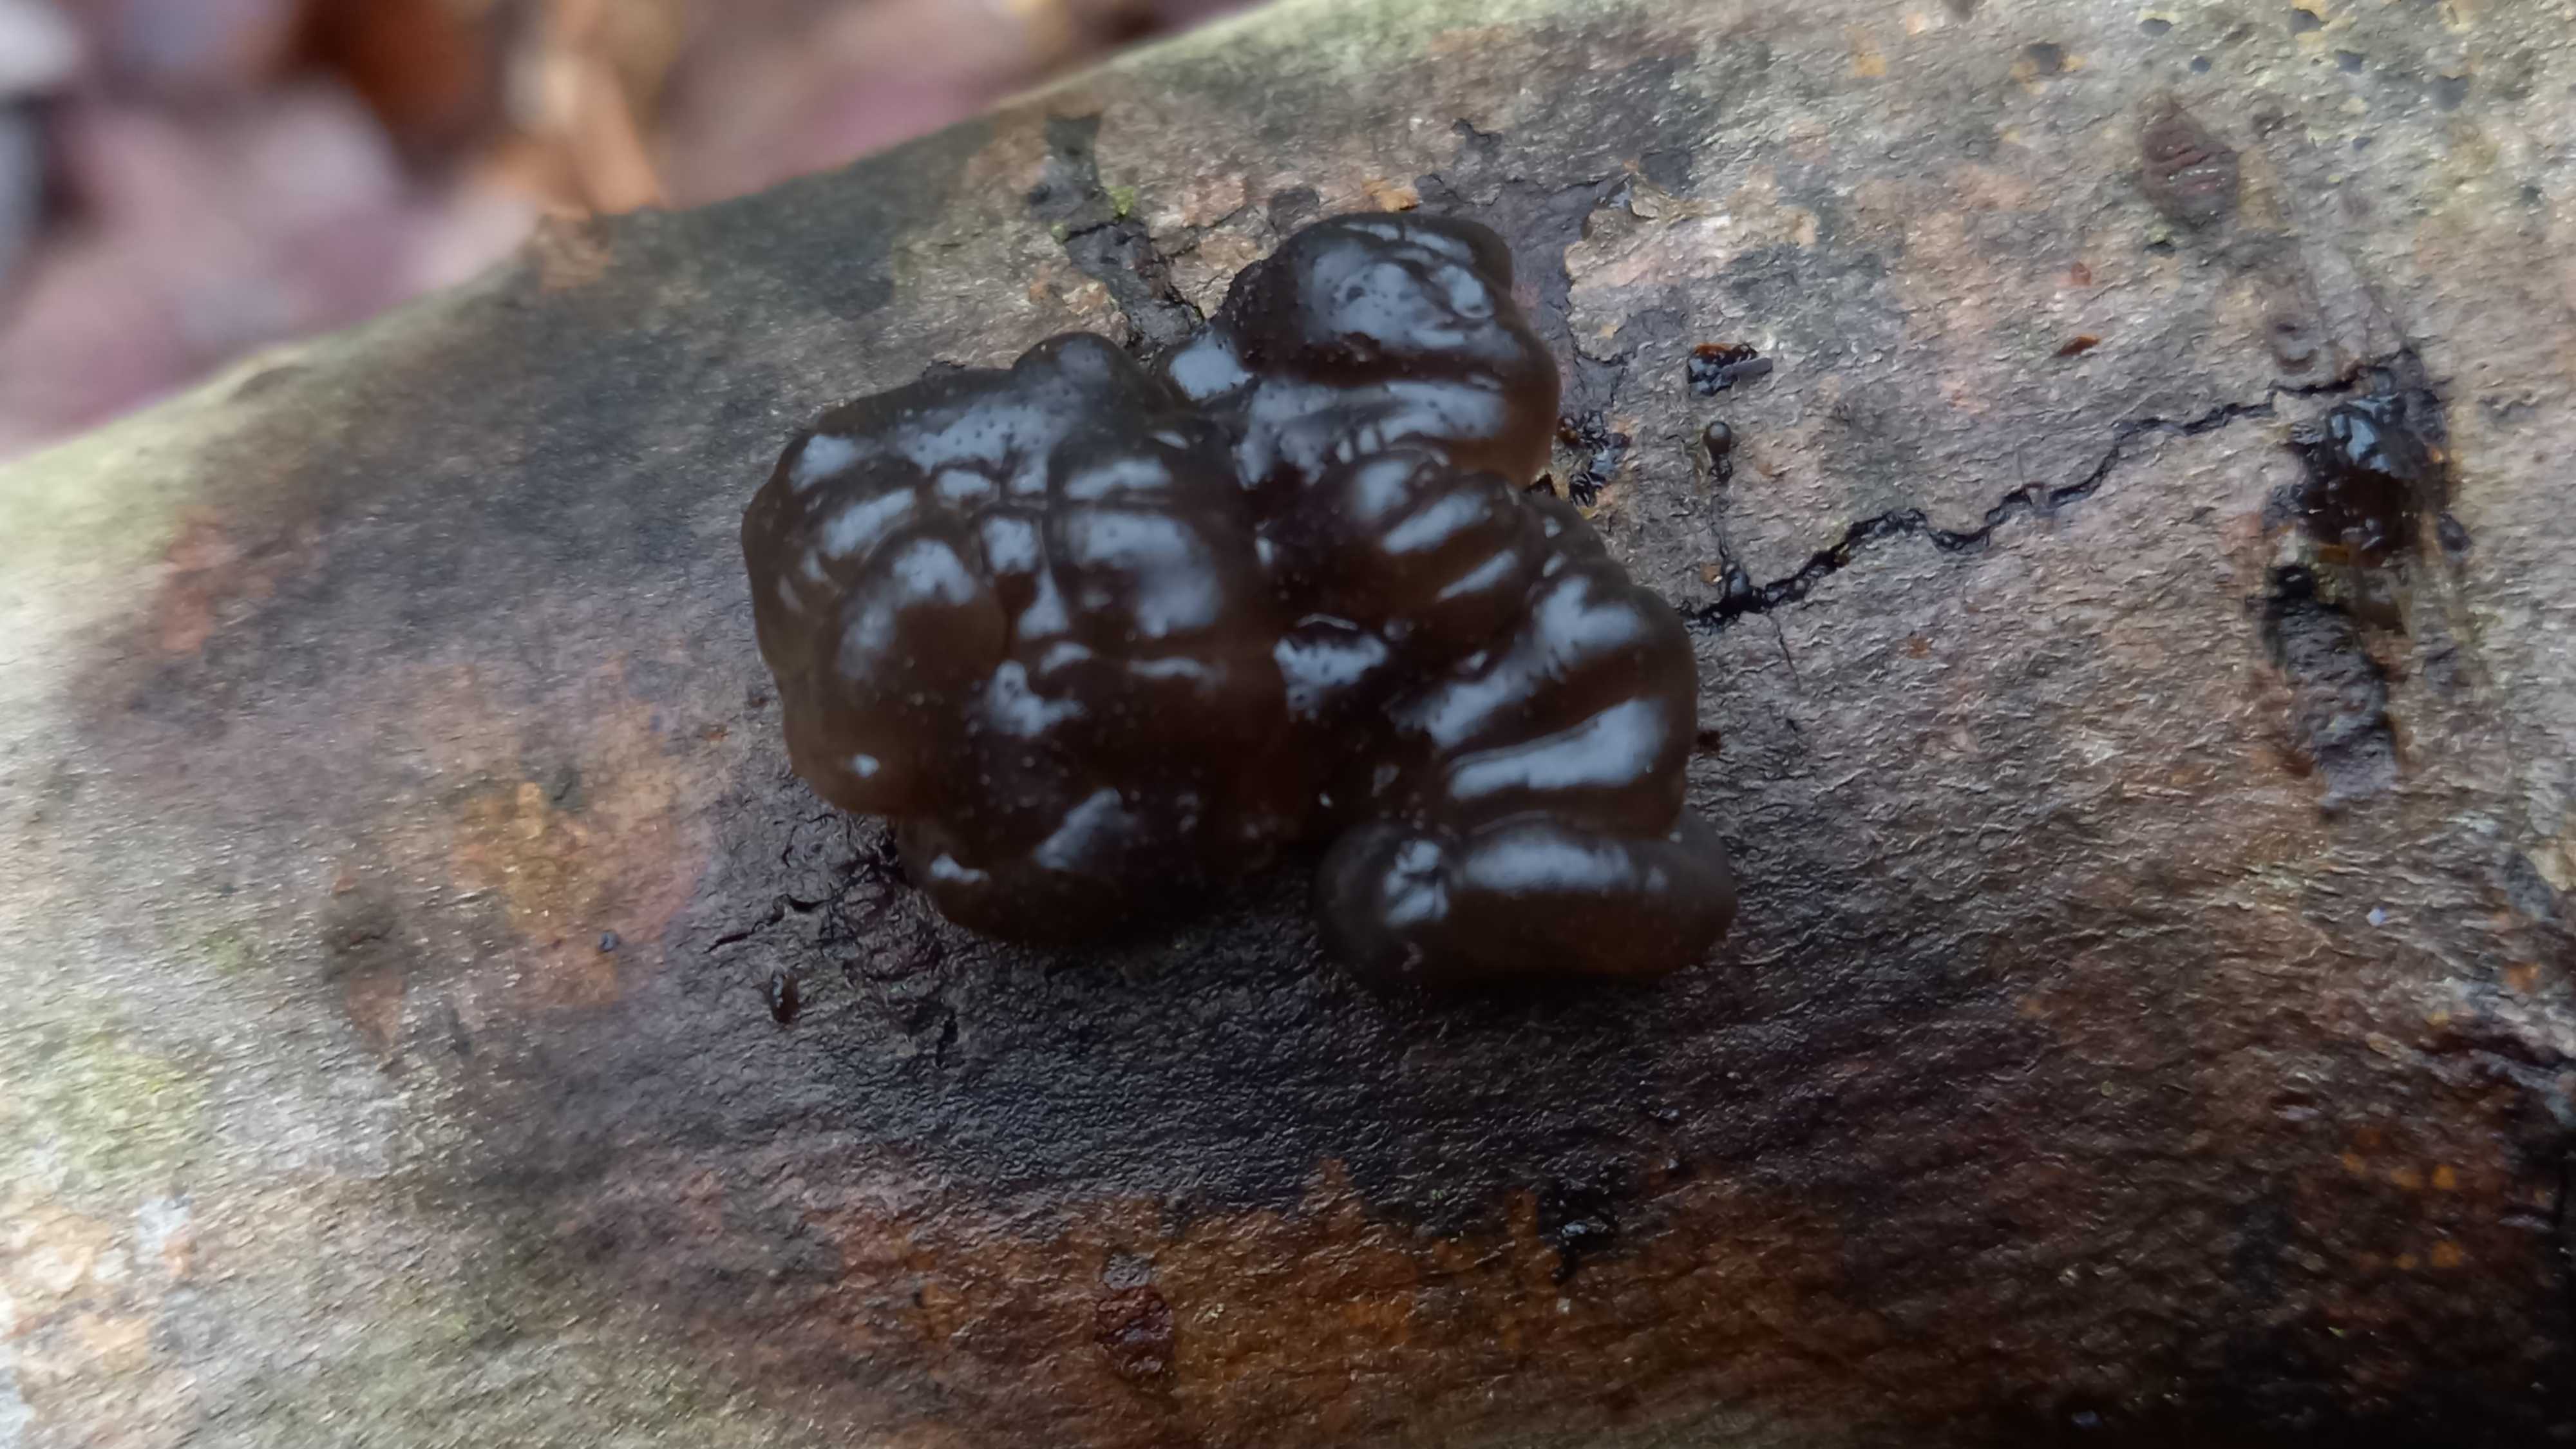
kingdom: Fungi
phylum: Basidiomycota
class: Agaricomycetes
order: Auriculariales
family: Auriculariaceae
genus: Exidia
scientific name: Exidia nigricans
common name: almindelig bævretop
